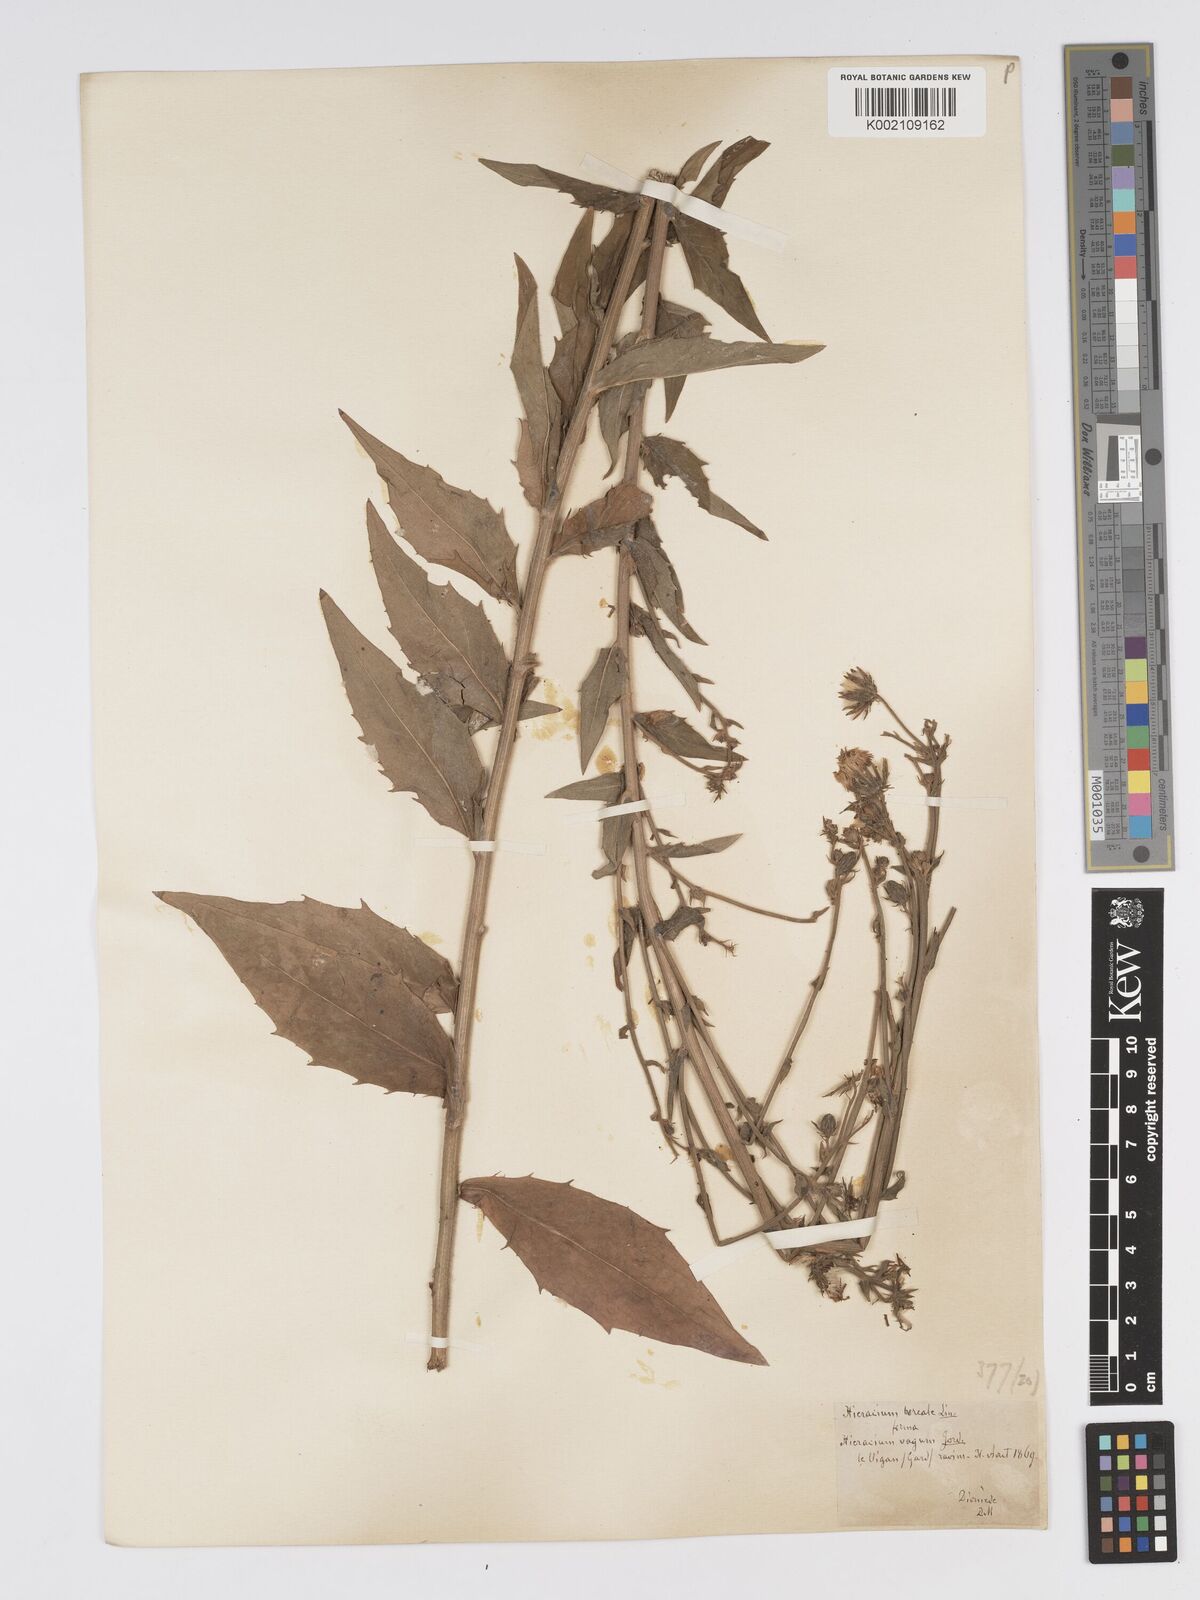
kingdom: Plantae
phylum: Tracheophyta
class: Magnoliopsida
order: Asterales
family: Asteraceae
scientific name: Asteraceae
